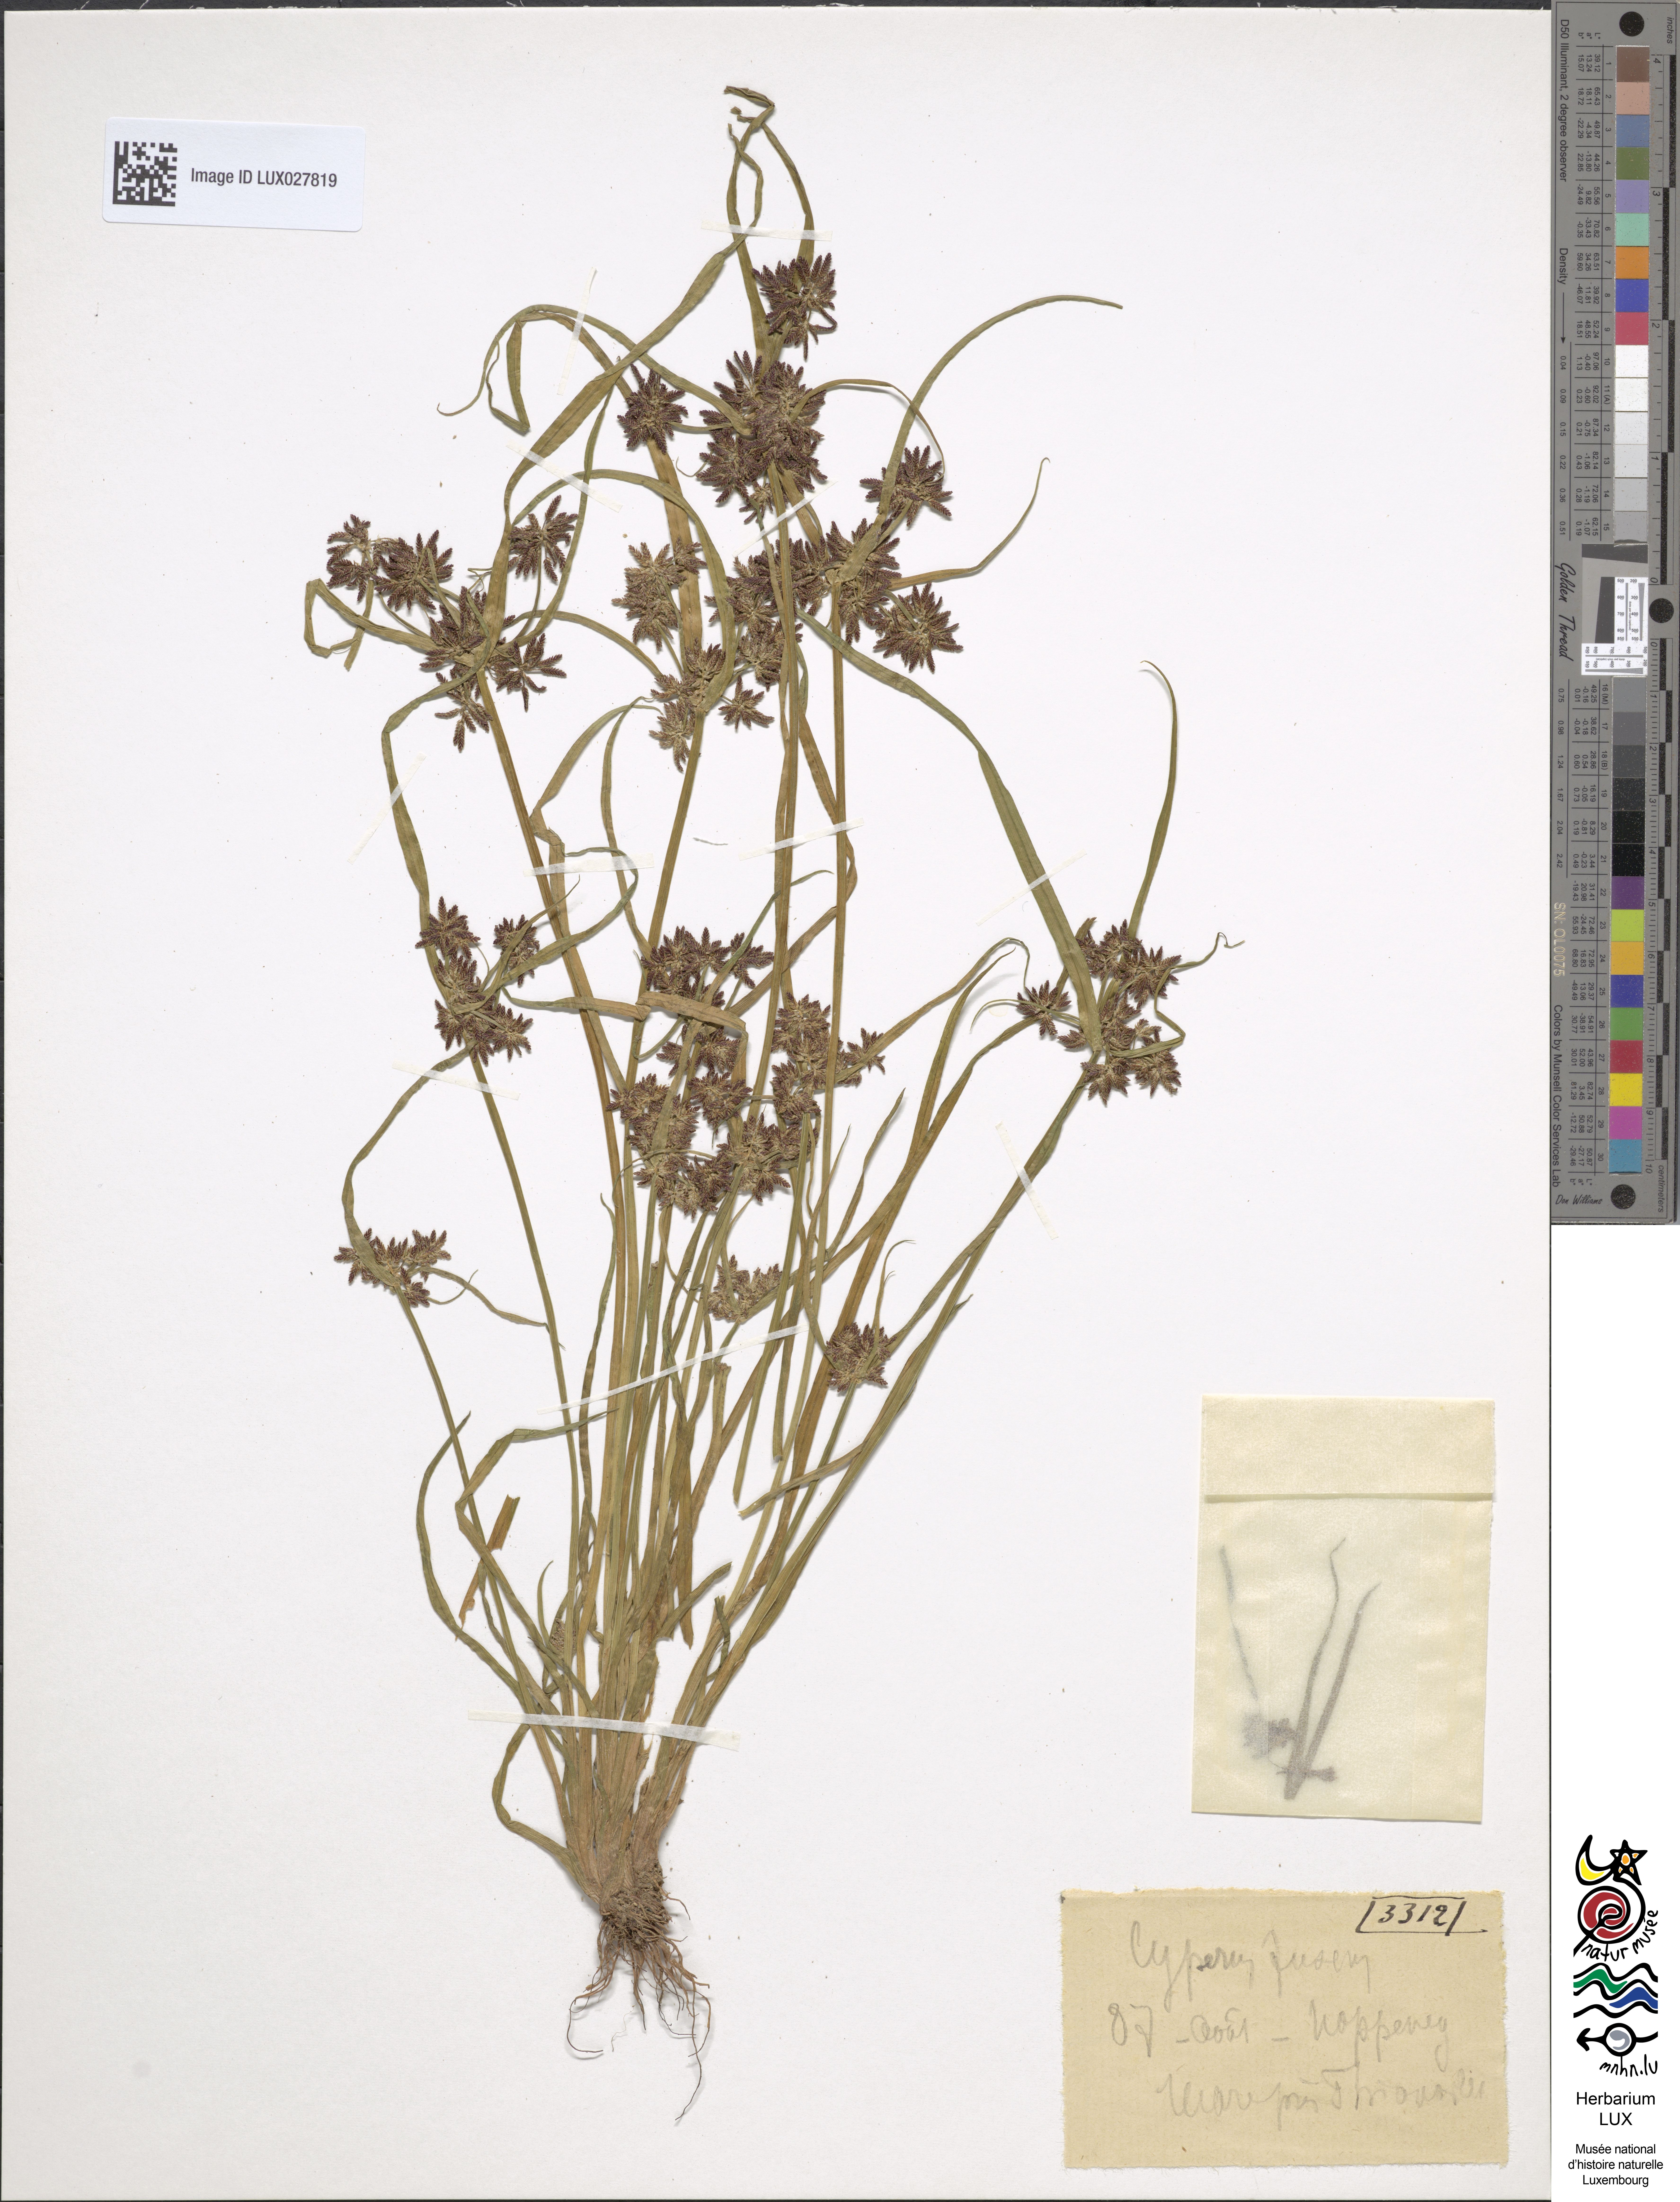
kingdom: Plantae
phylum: Tracheophyta
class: Liliopsida
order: Poales
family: Cyperaceae
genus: Cyperus
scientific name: Cyperus fuscus
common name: Brown galingale
